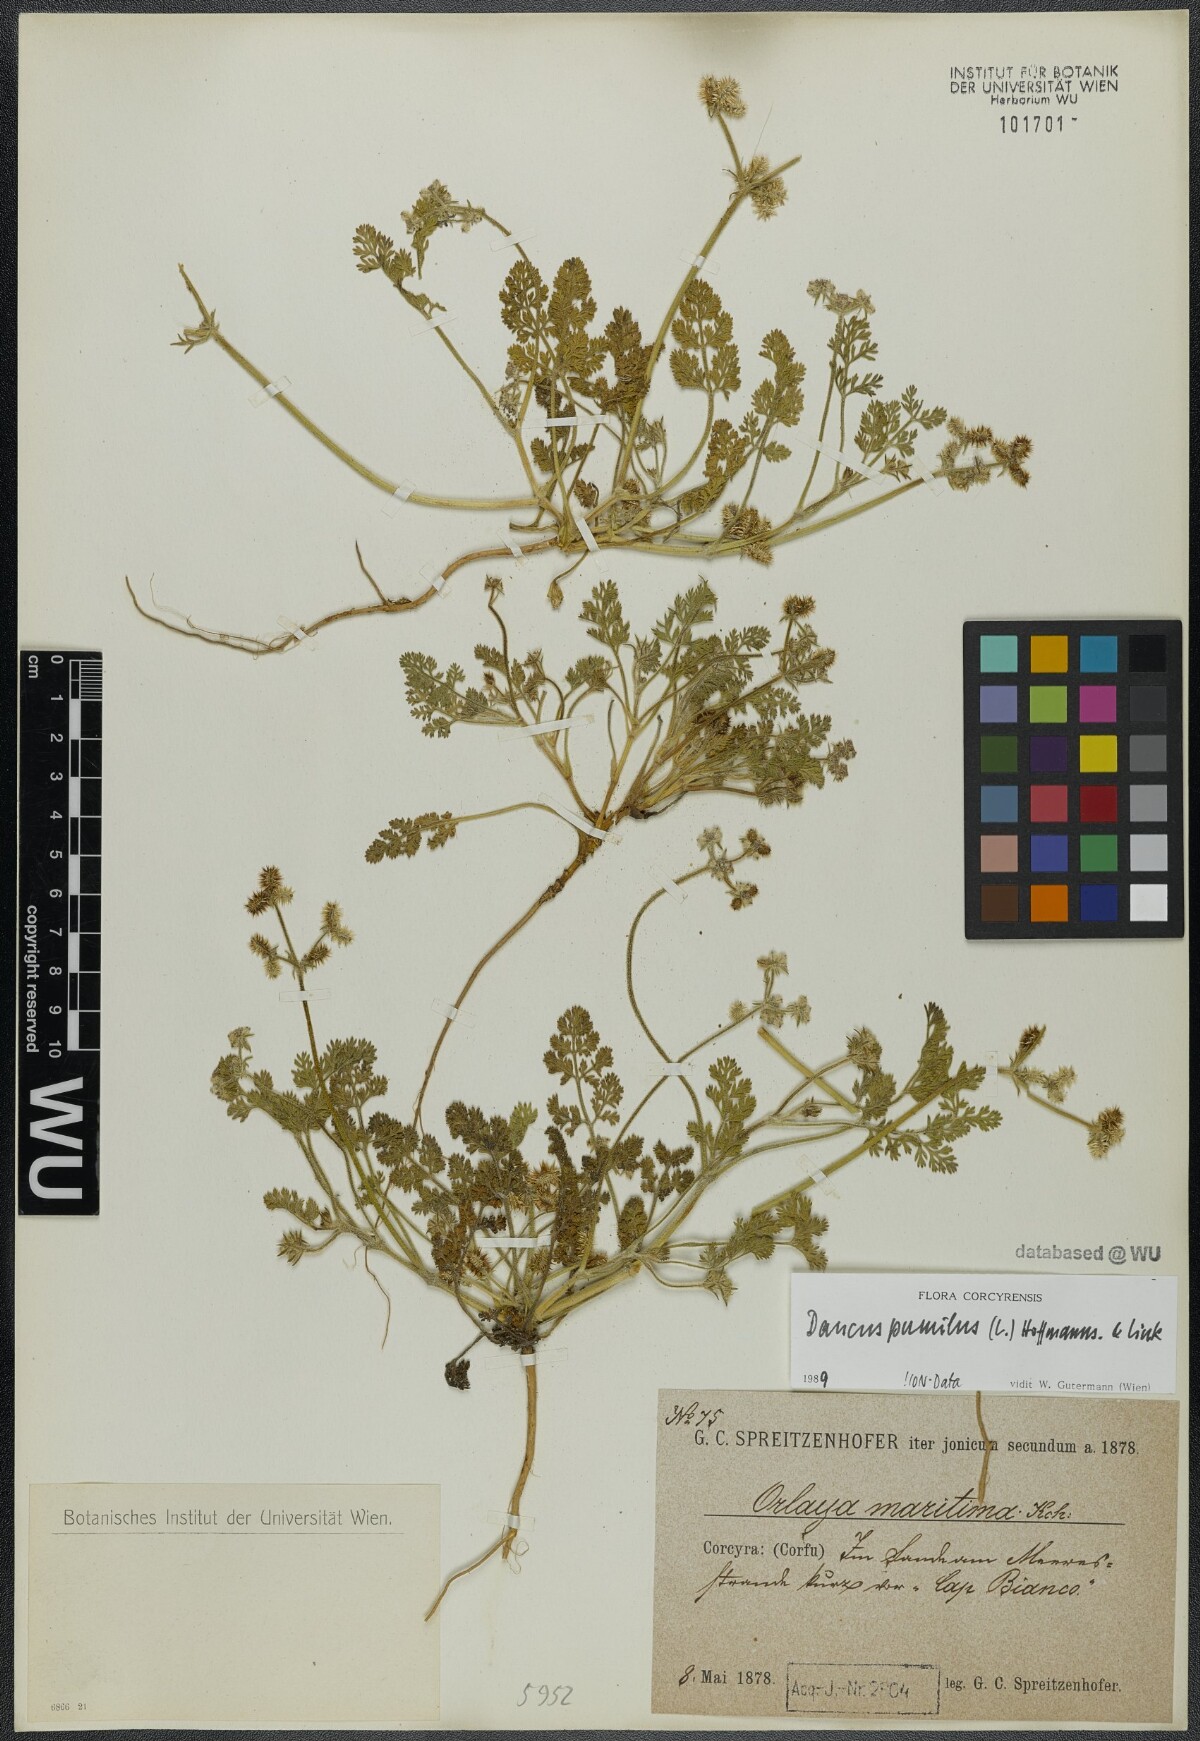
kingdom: Plantae
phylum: Tracheophyta
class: Magnoliopsida
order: Apiales
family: Apiaceae
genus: Daucus
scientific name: Daucus pumilus
